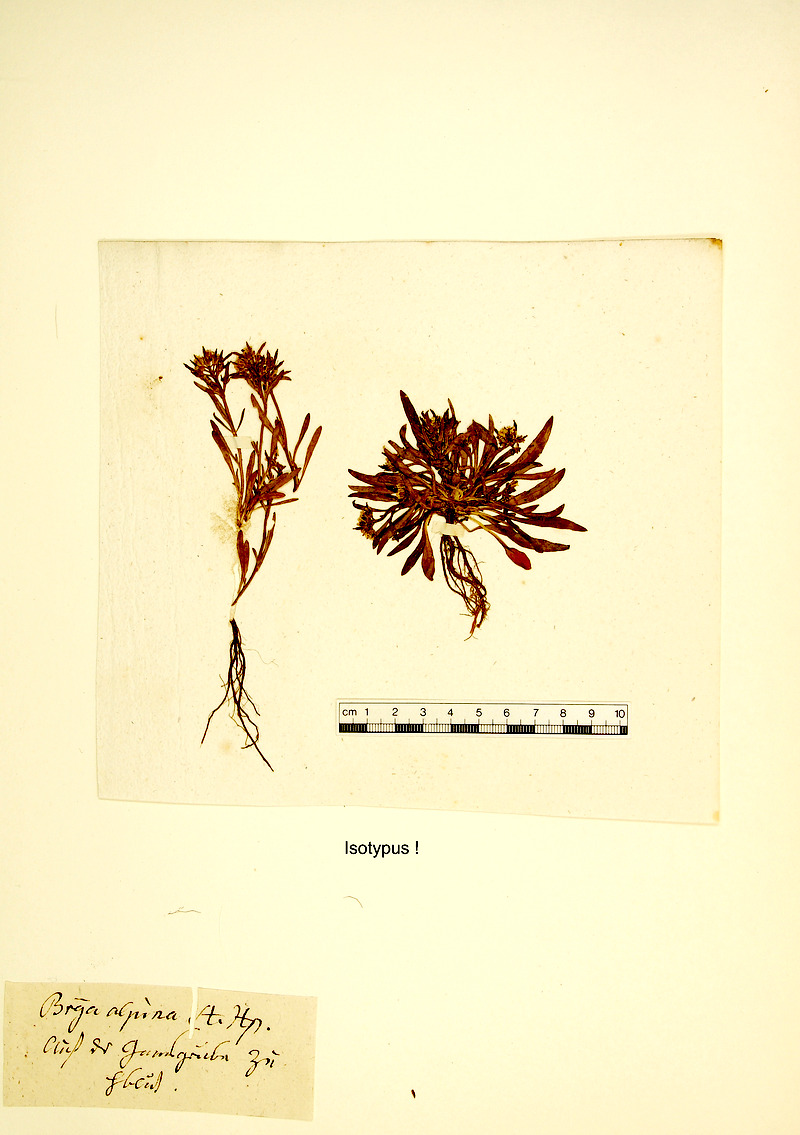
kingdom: Plantae
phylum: Tracheophyta
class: Magnoliopsida
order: Brassicales
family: Brassicaceae
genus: Braya
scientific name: Braya alpina
